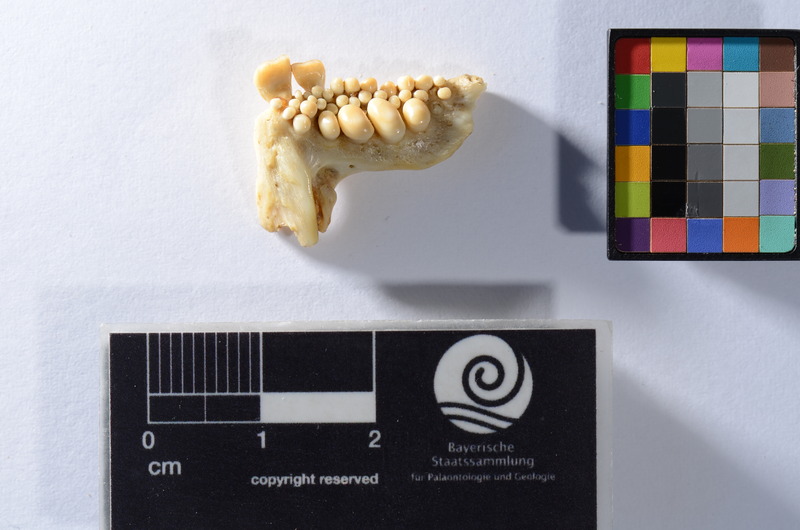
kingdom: Animalia
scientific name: Animalia
